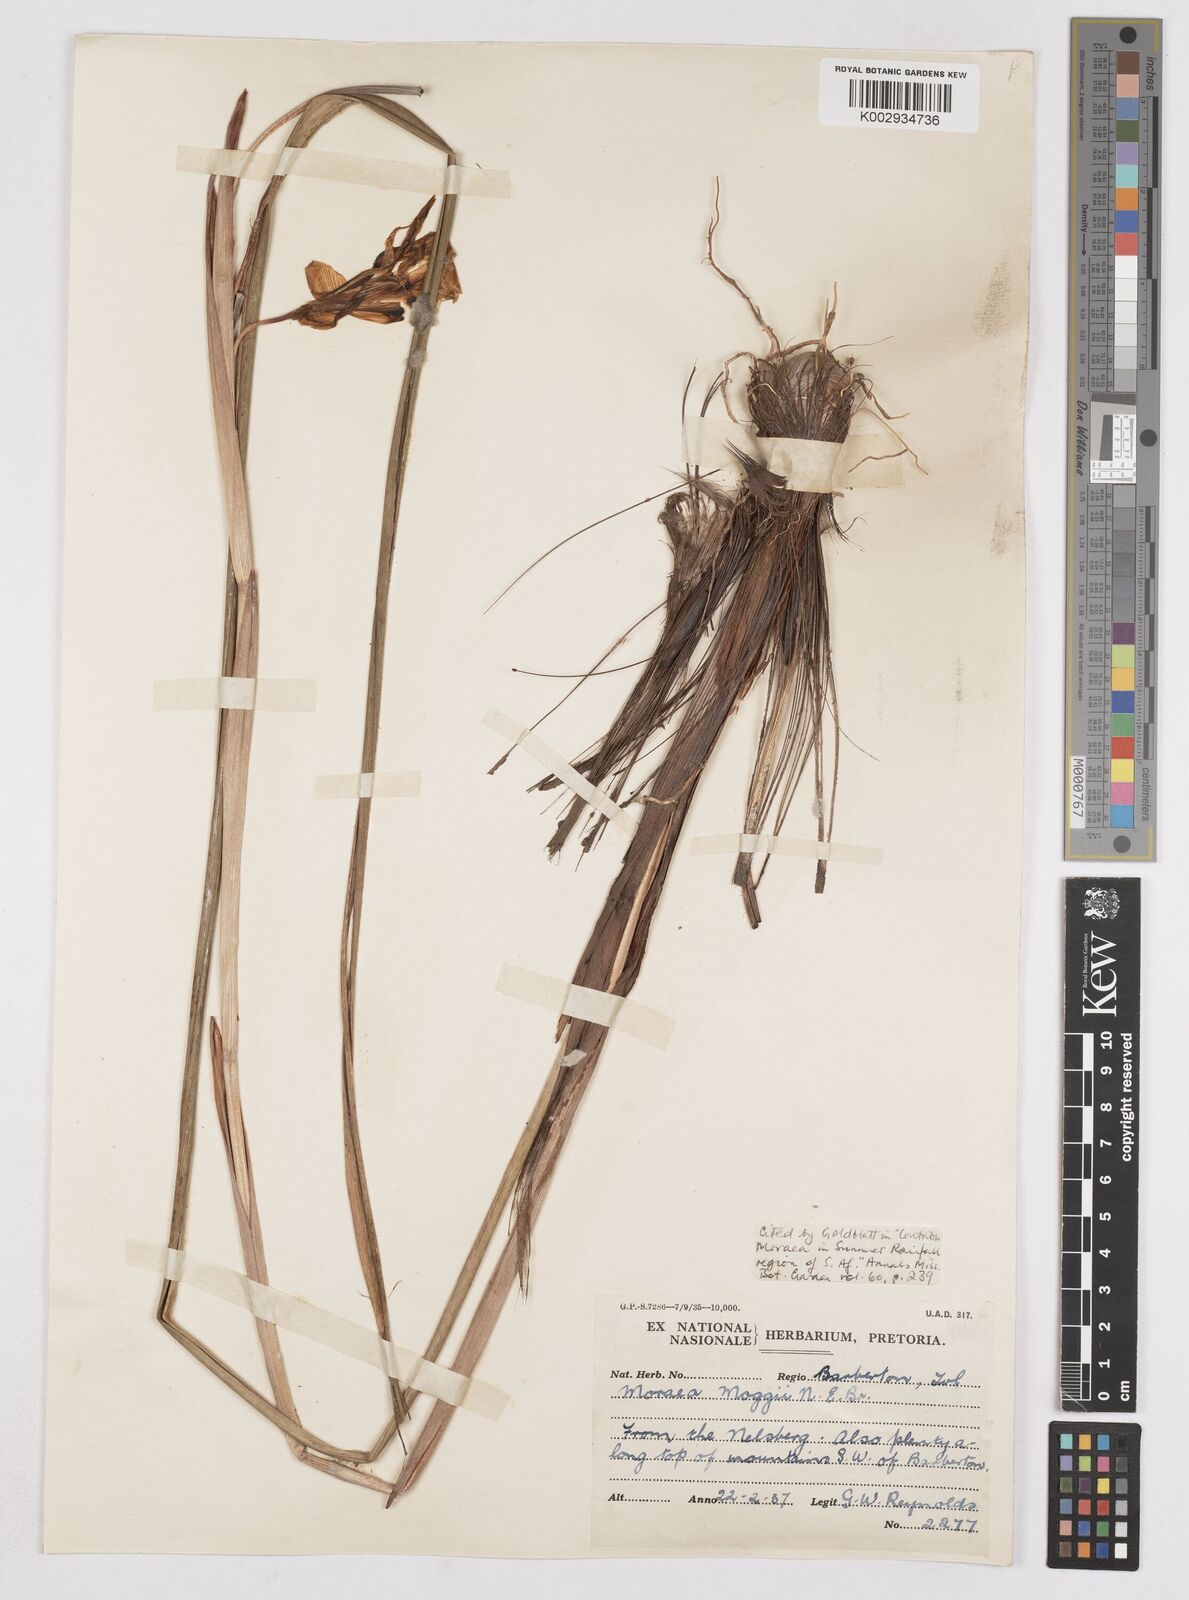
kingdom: Plantae
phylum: Tracheophyta
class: Liliopsida
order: Asparagales
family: Iridaceae
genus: Moraea
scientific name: Moraea moggii
